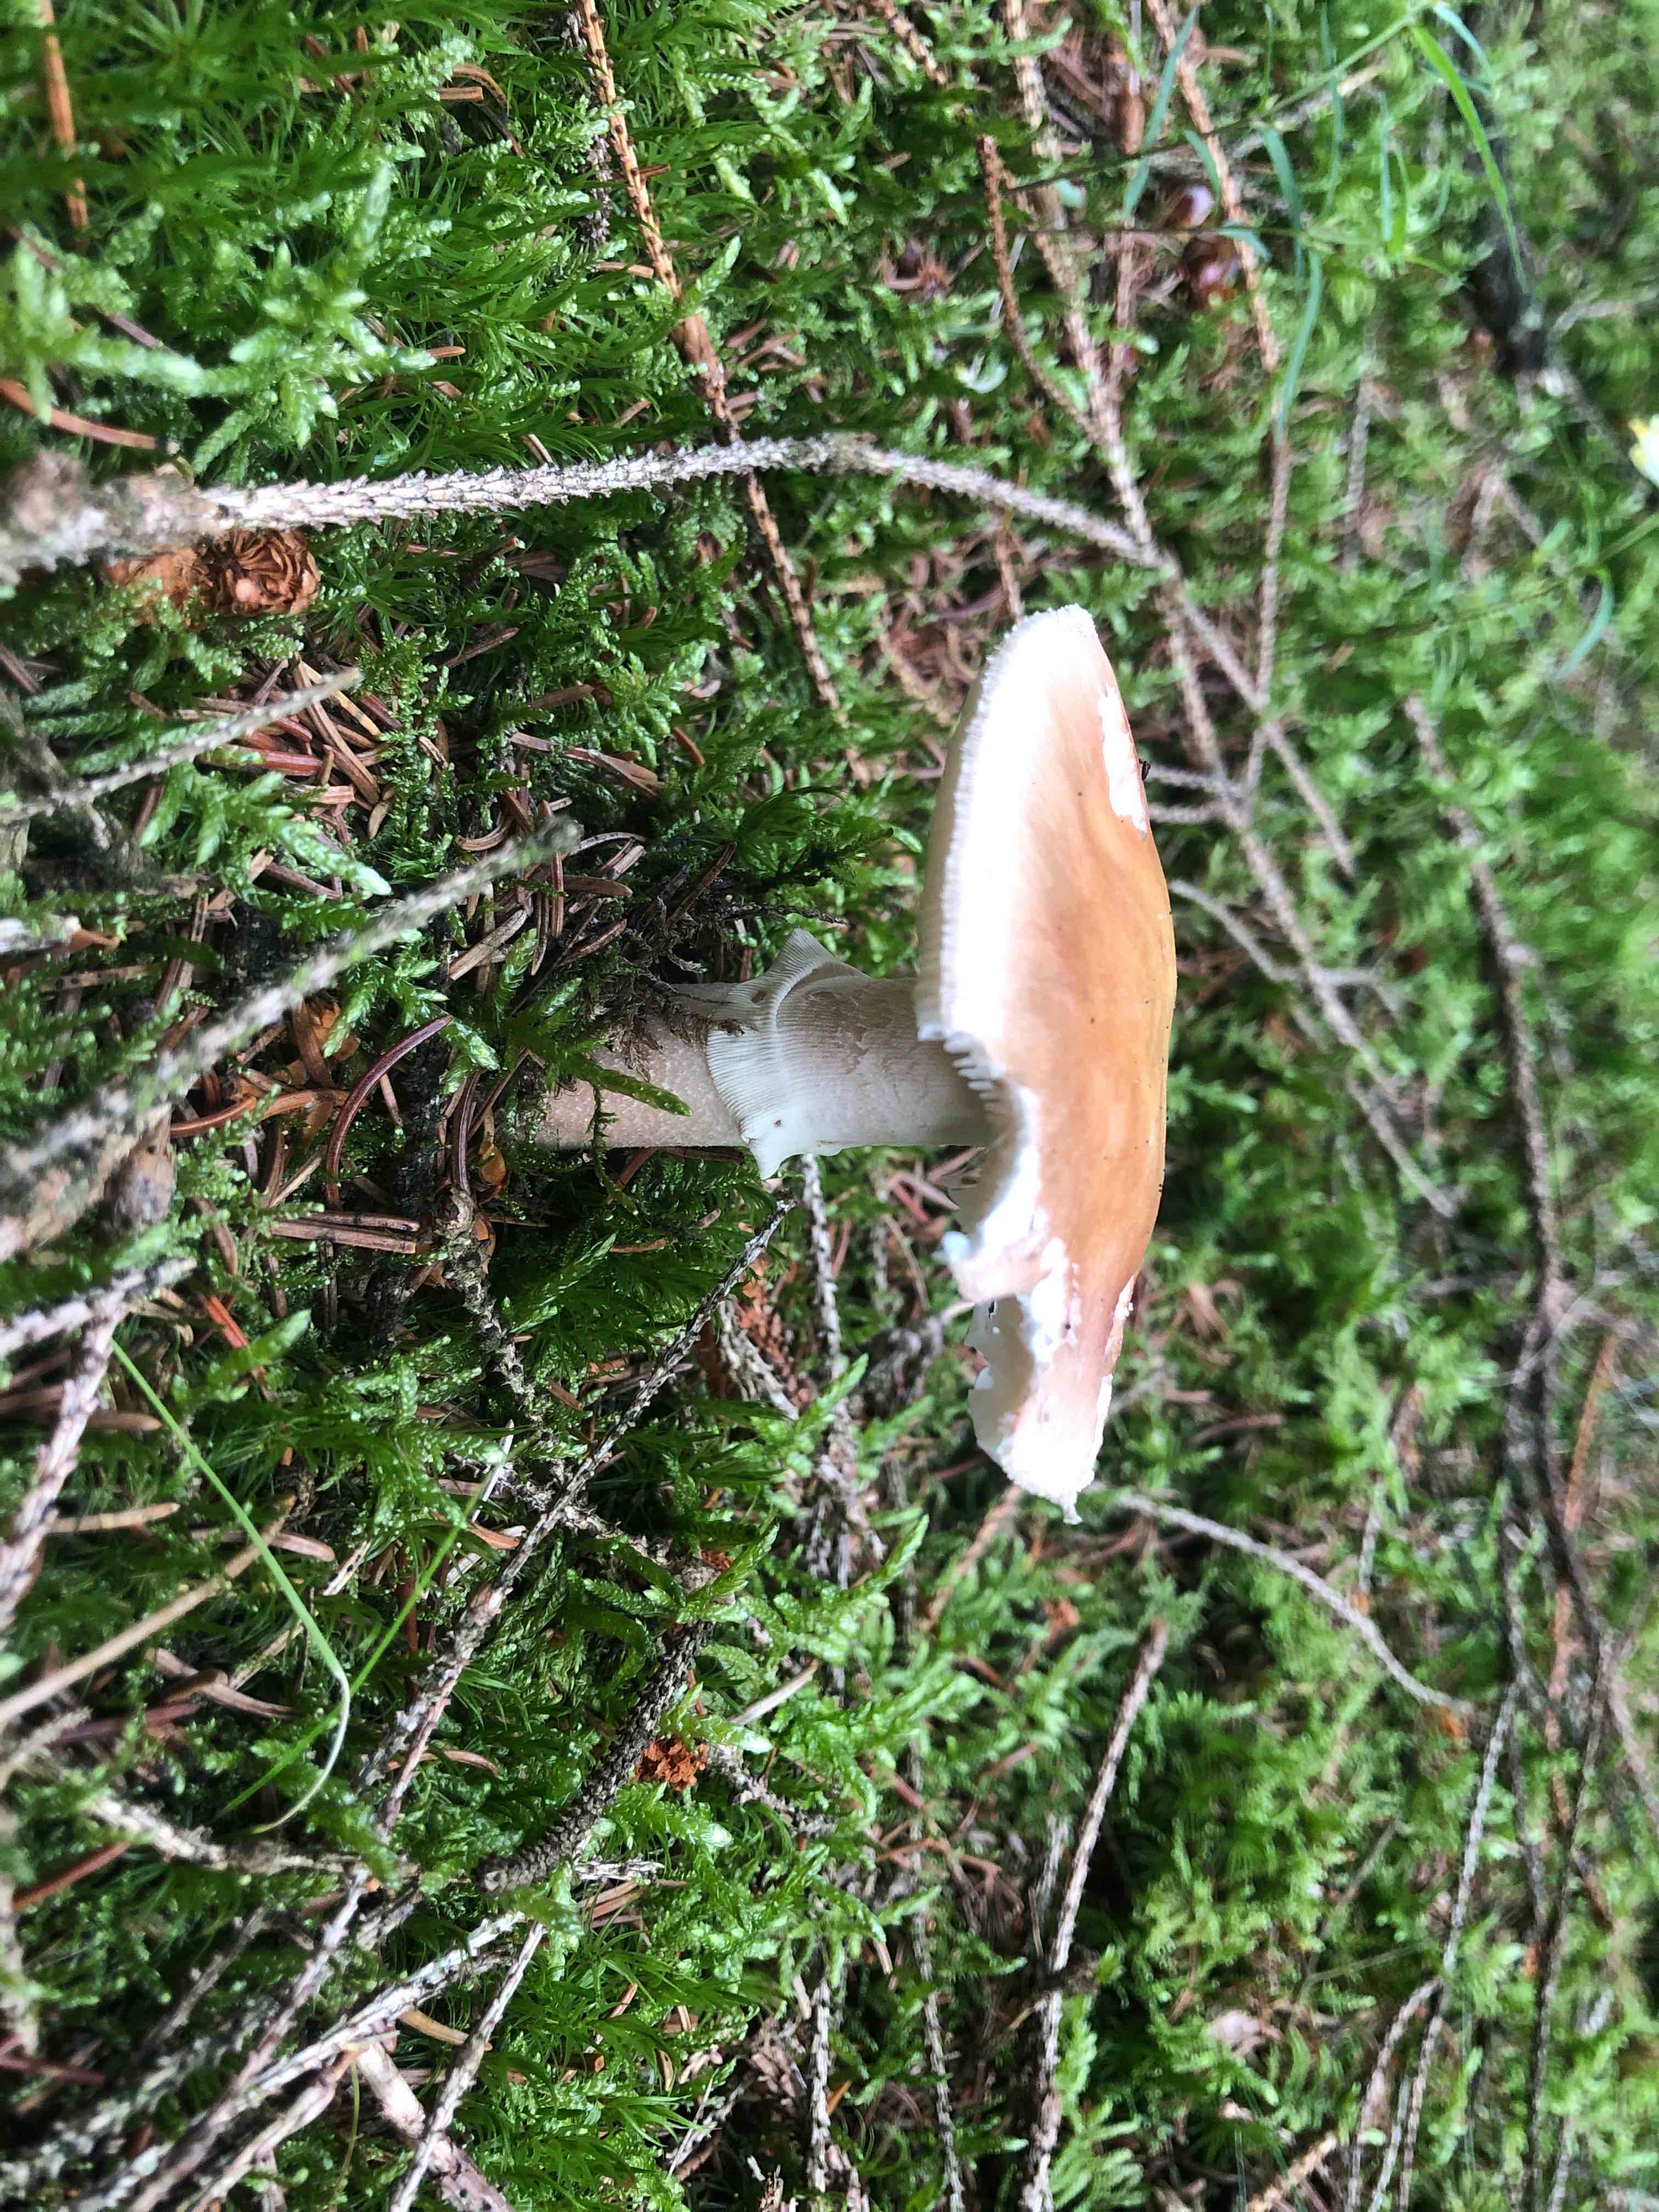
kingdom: Fungi
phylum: Basidiomycota
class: Agaricomycetes
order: Agaricales
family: Amanitaceae
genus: Amanita
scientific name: Amanita rubescens
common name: rødmende fluesvamp
